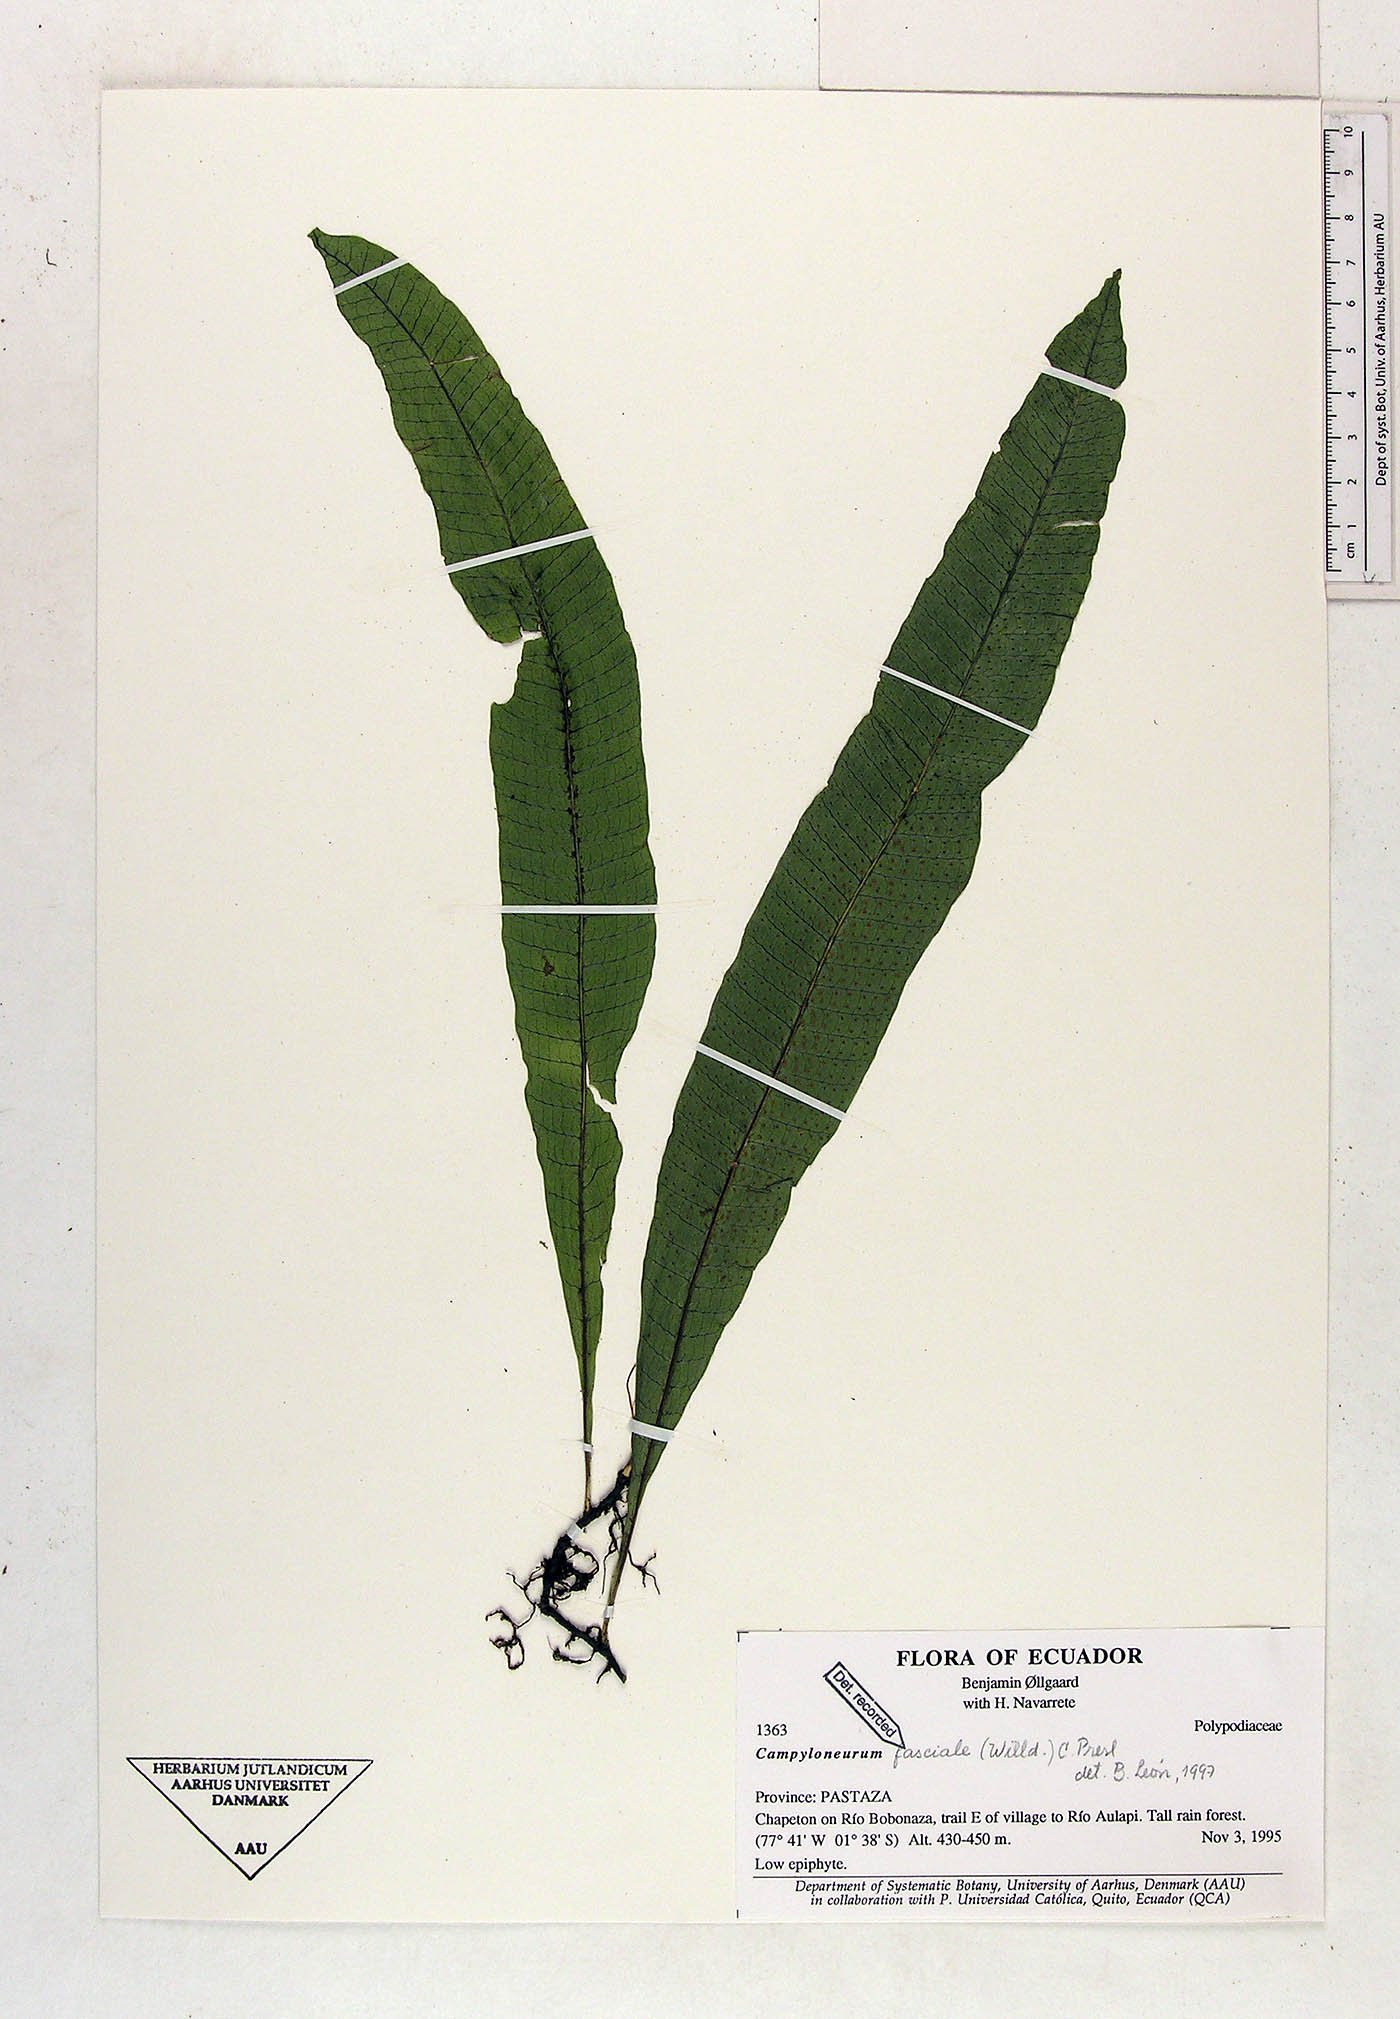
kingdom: Plantae
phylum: Tracheophyta
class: Polypodiopsida
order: Polypodiales
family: Polypodiaceae
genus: Campyloneurum
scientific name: Campyloneurum repens
